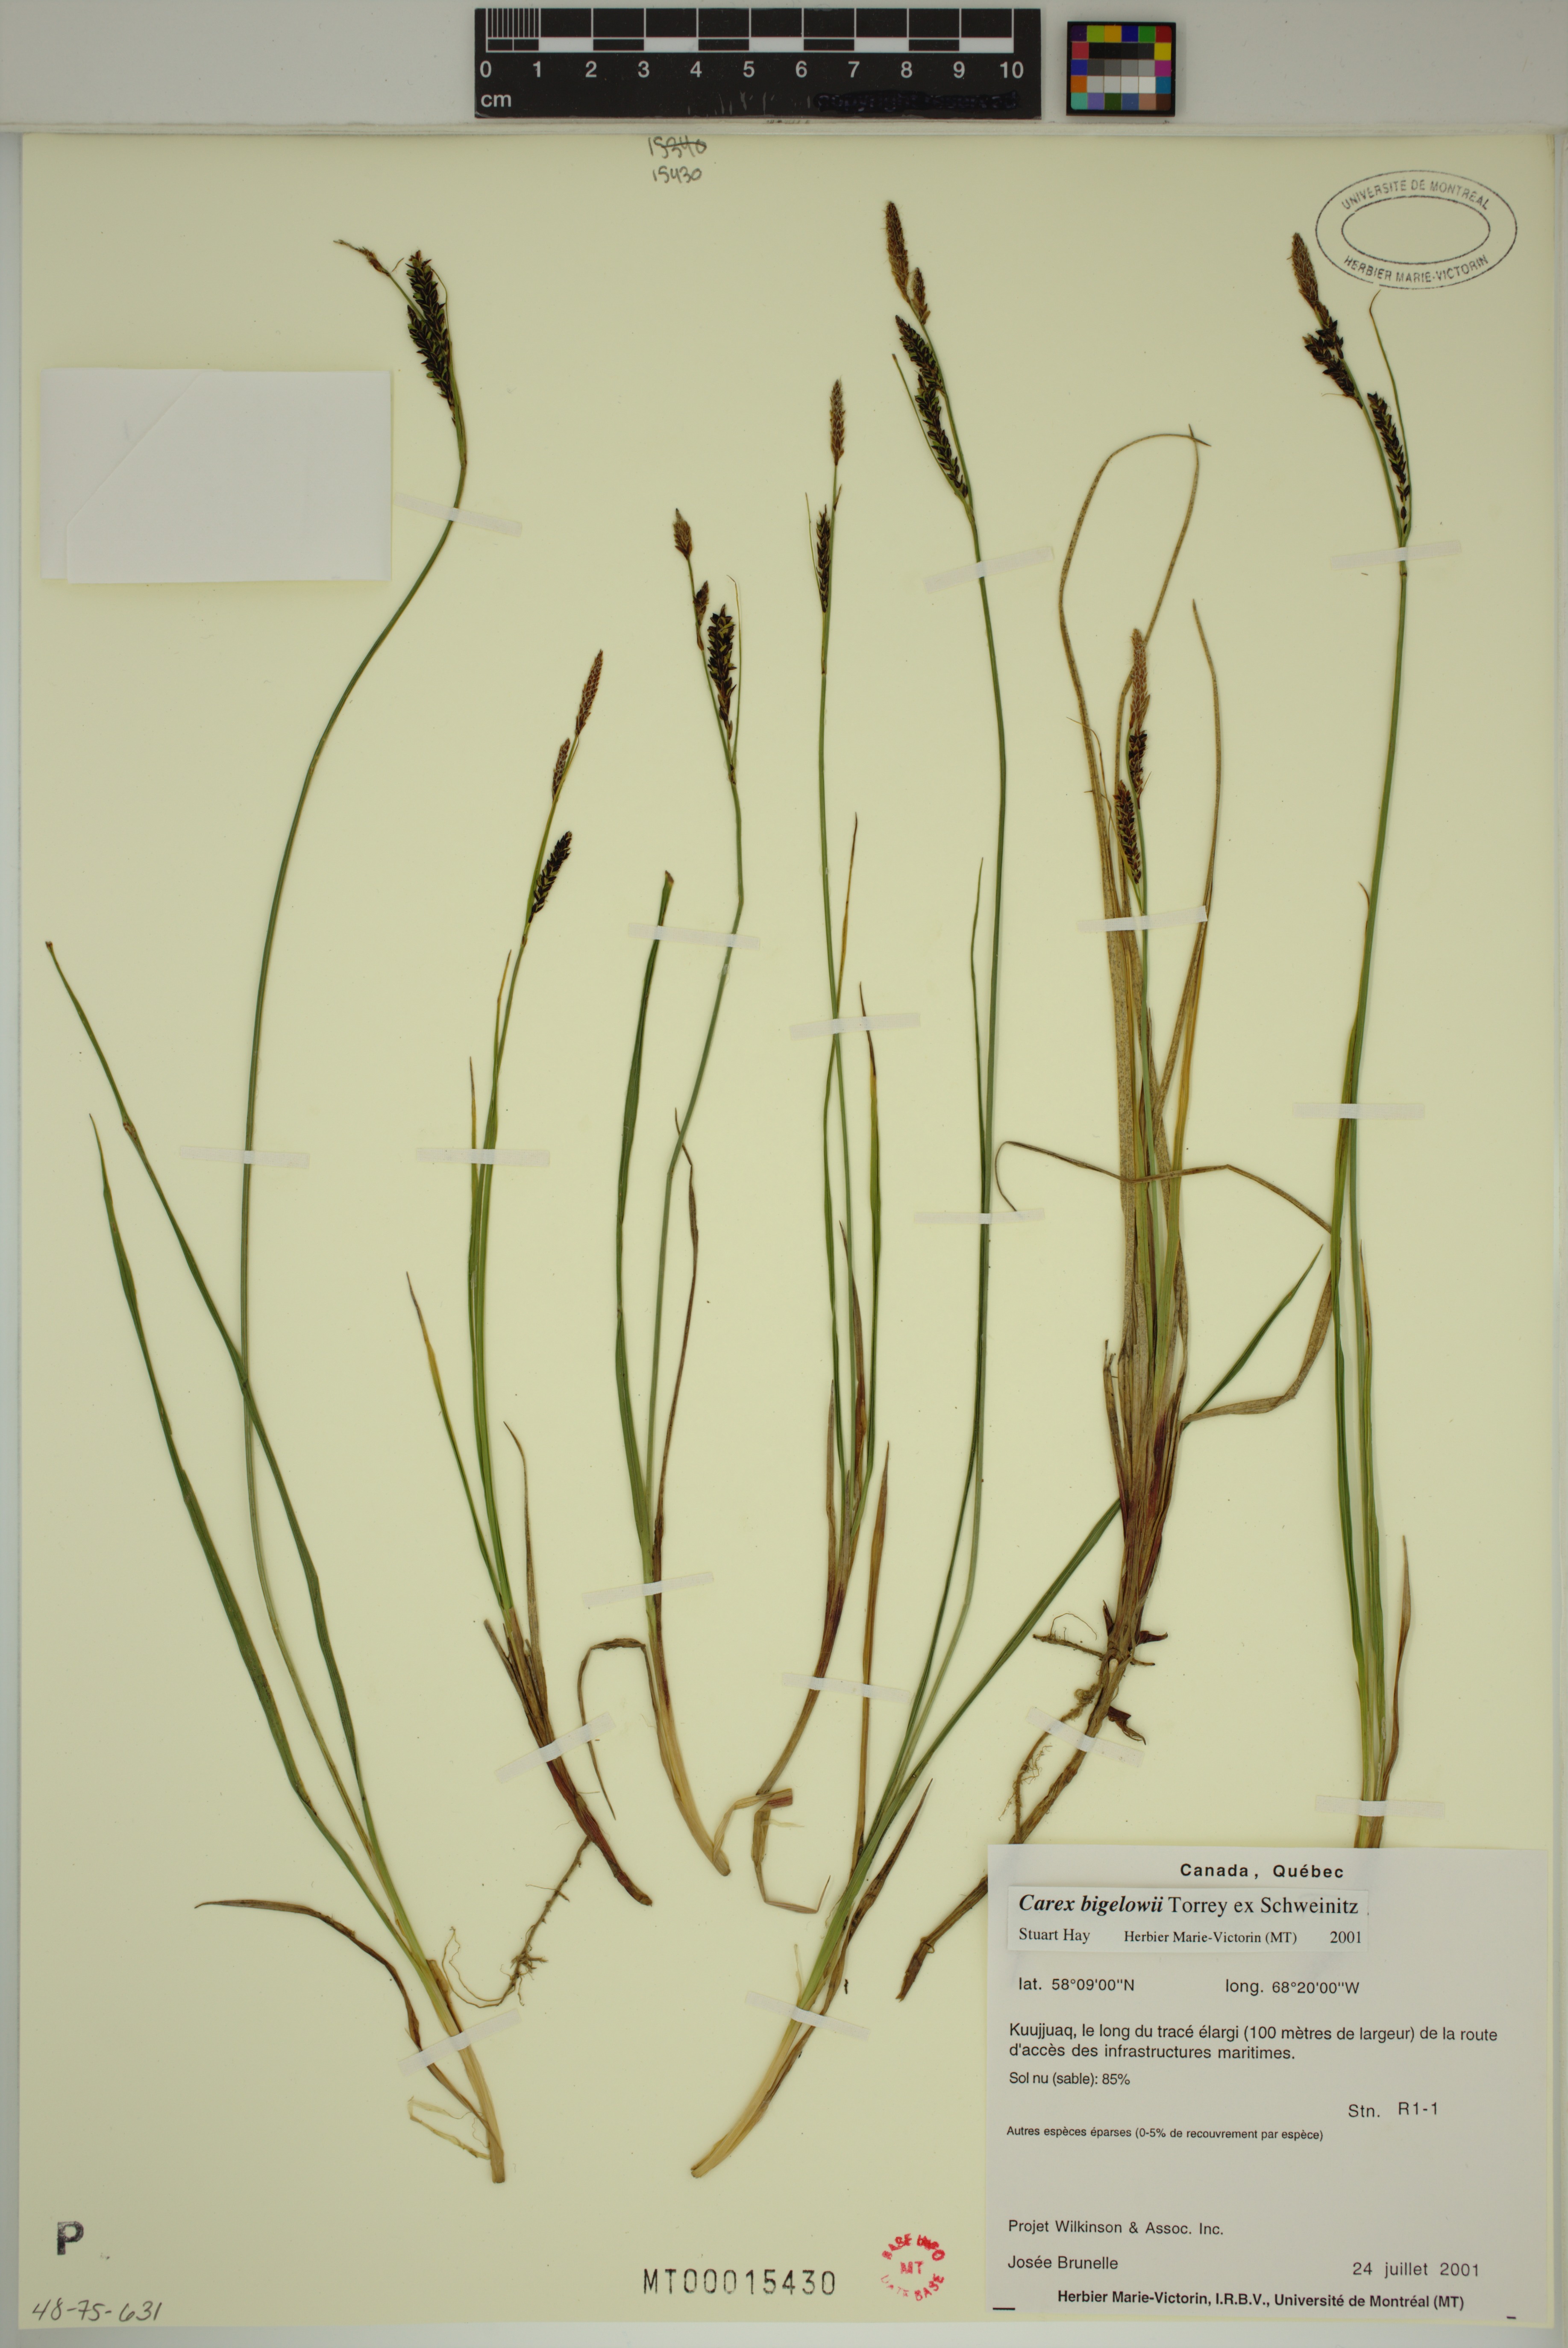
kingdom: Plantae
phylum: Tracheophyta
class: Liliopsida
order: Poales
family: Cyperaceae
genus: Carex
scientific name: Carex bigelowii
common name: Stiff sedge
